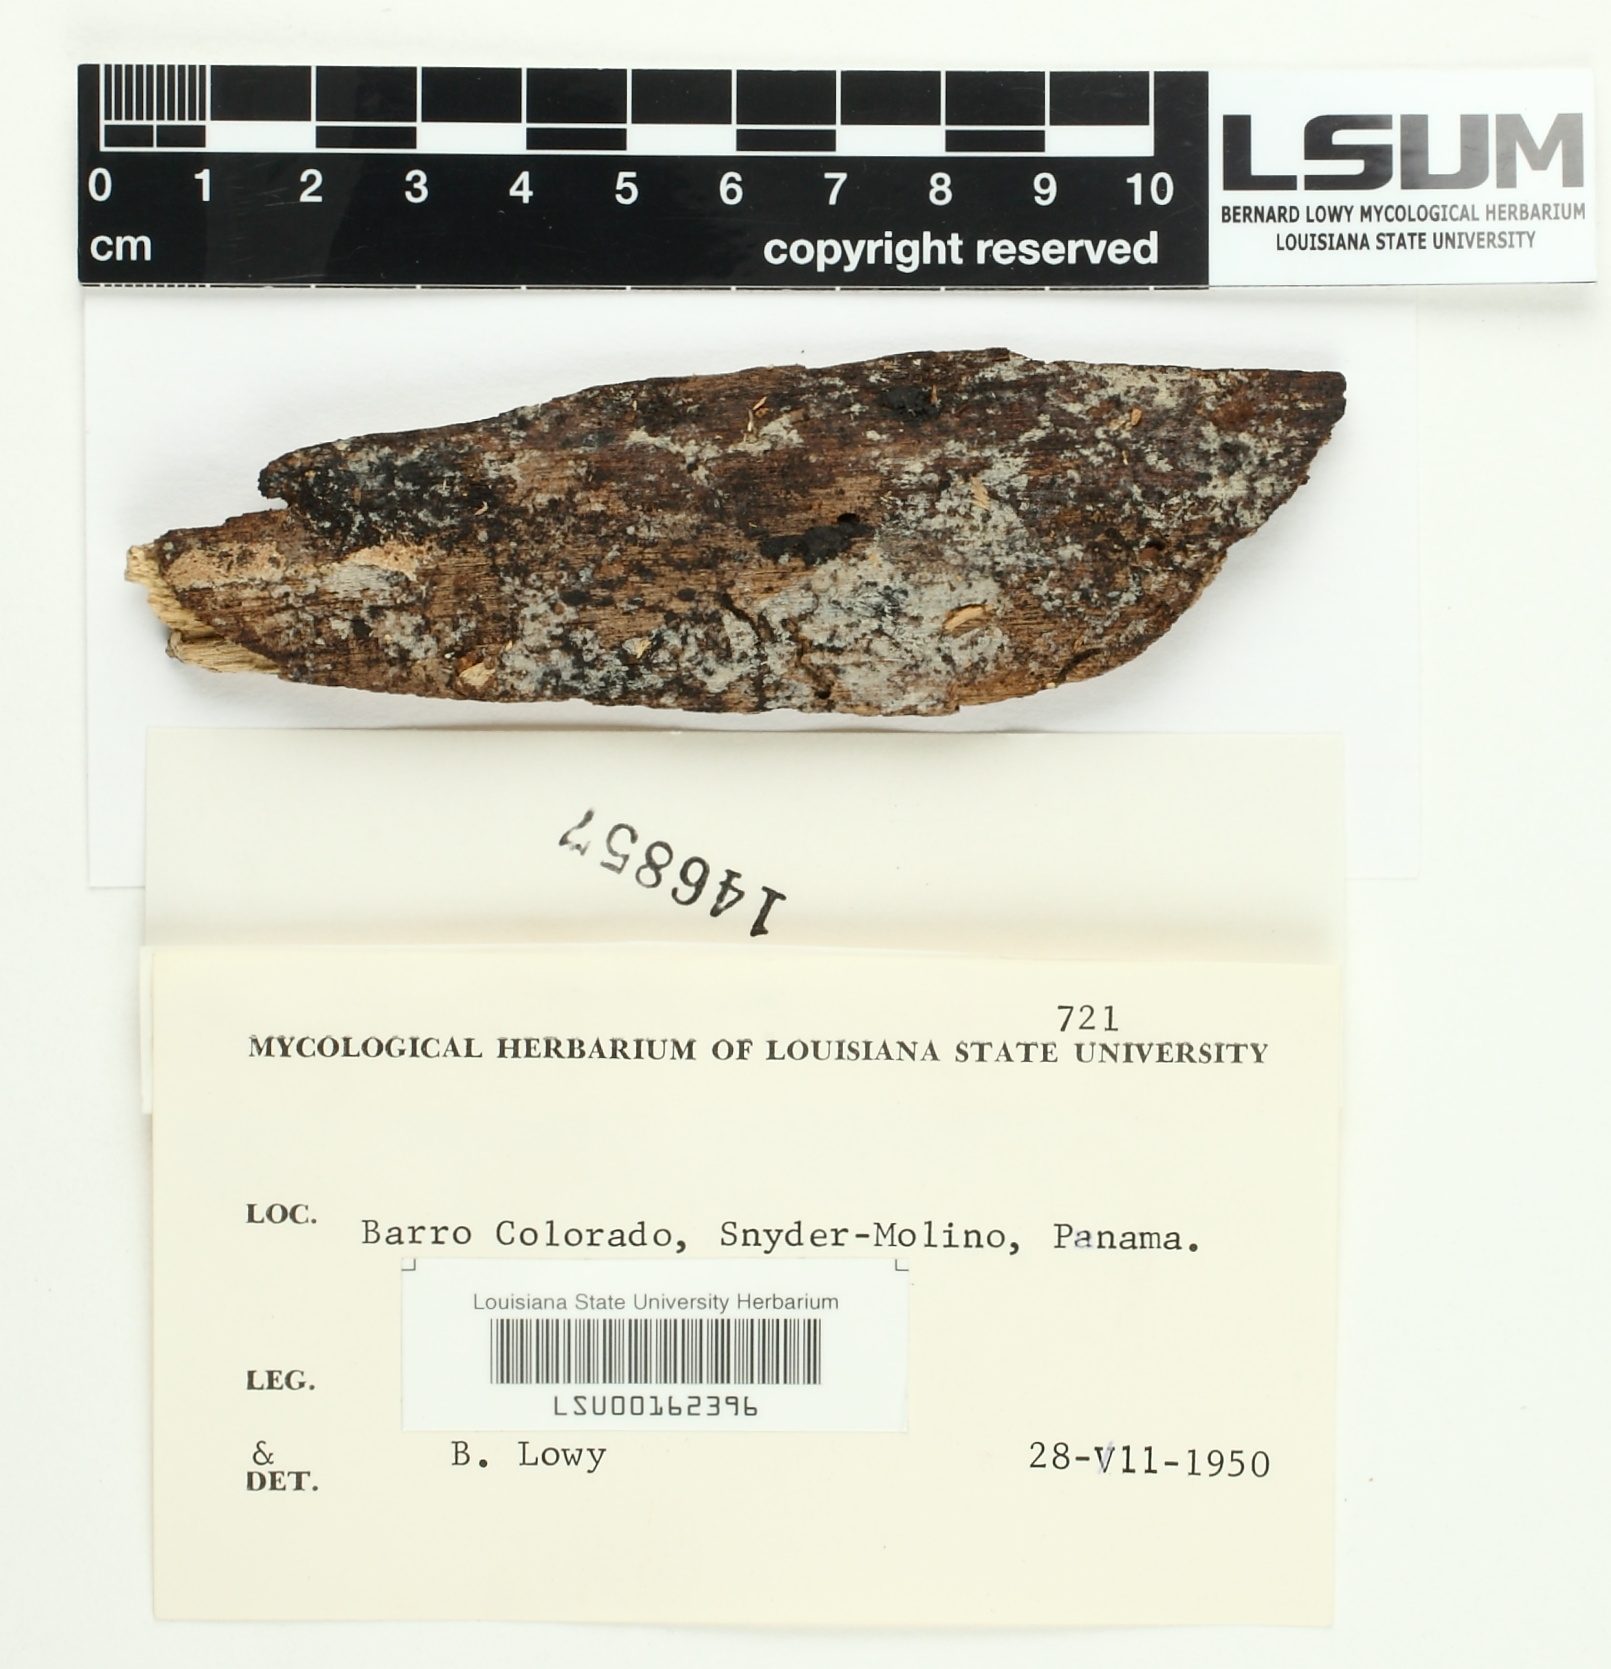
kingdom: Fungi
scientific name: Fungi
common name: Fungi
